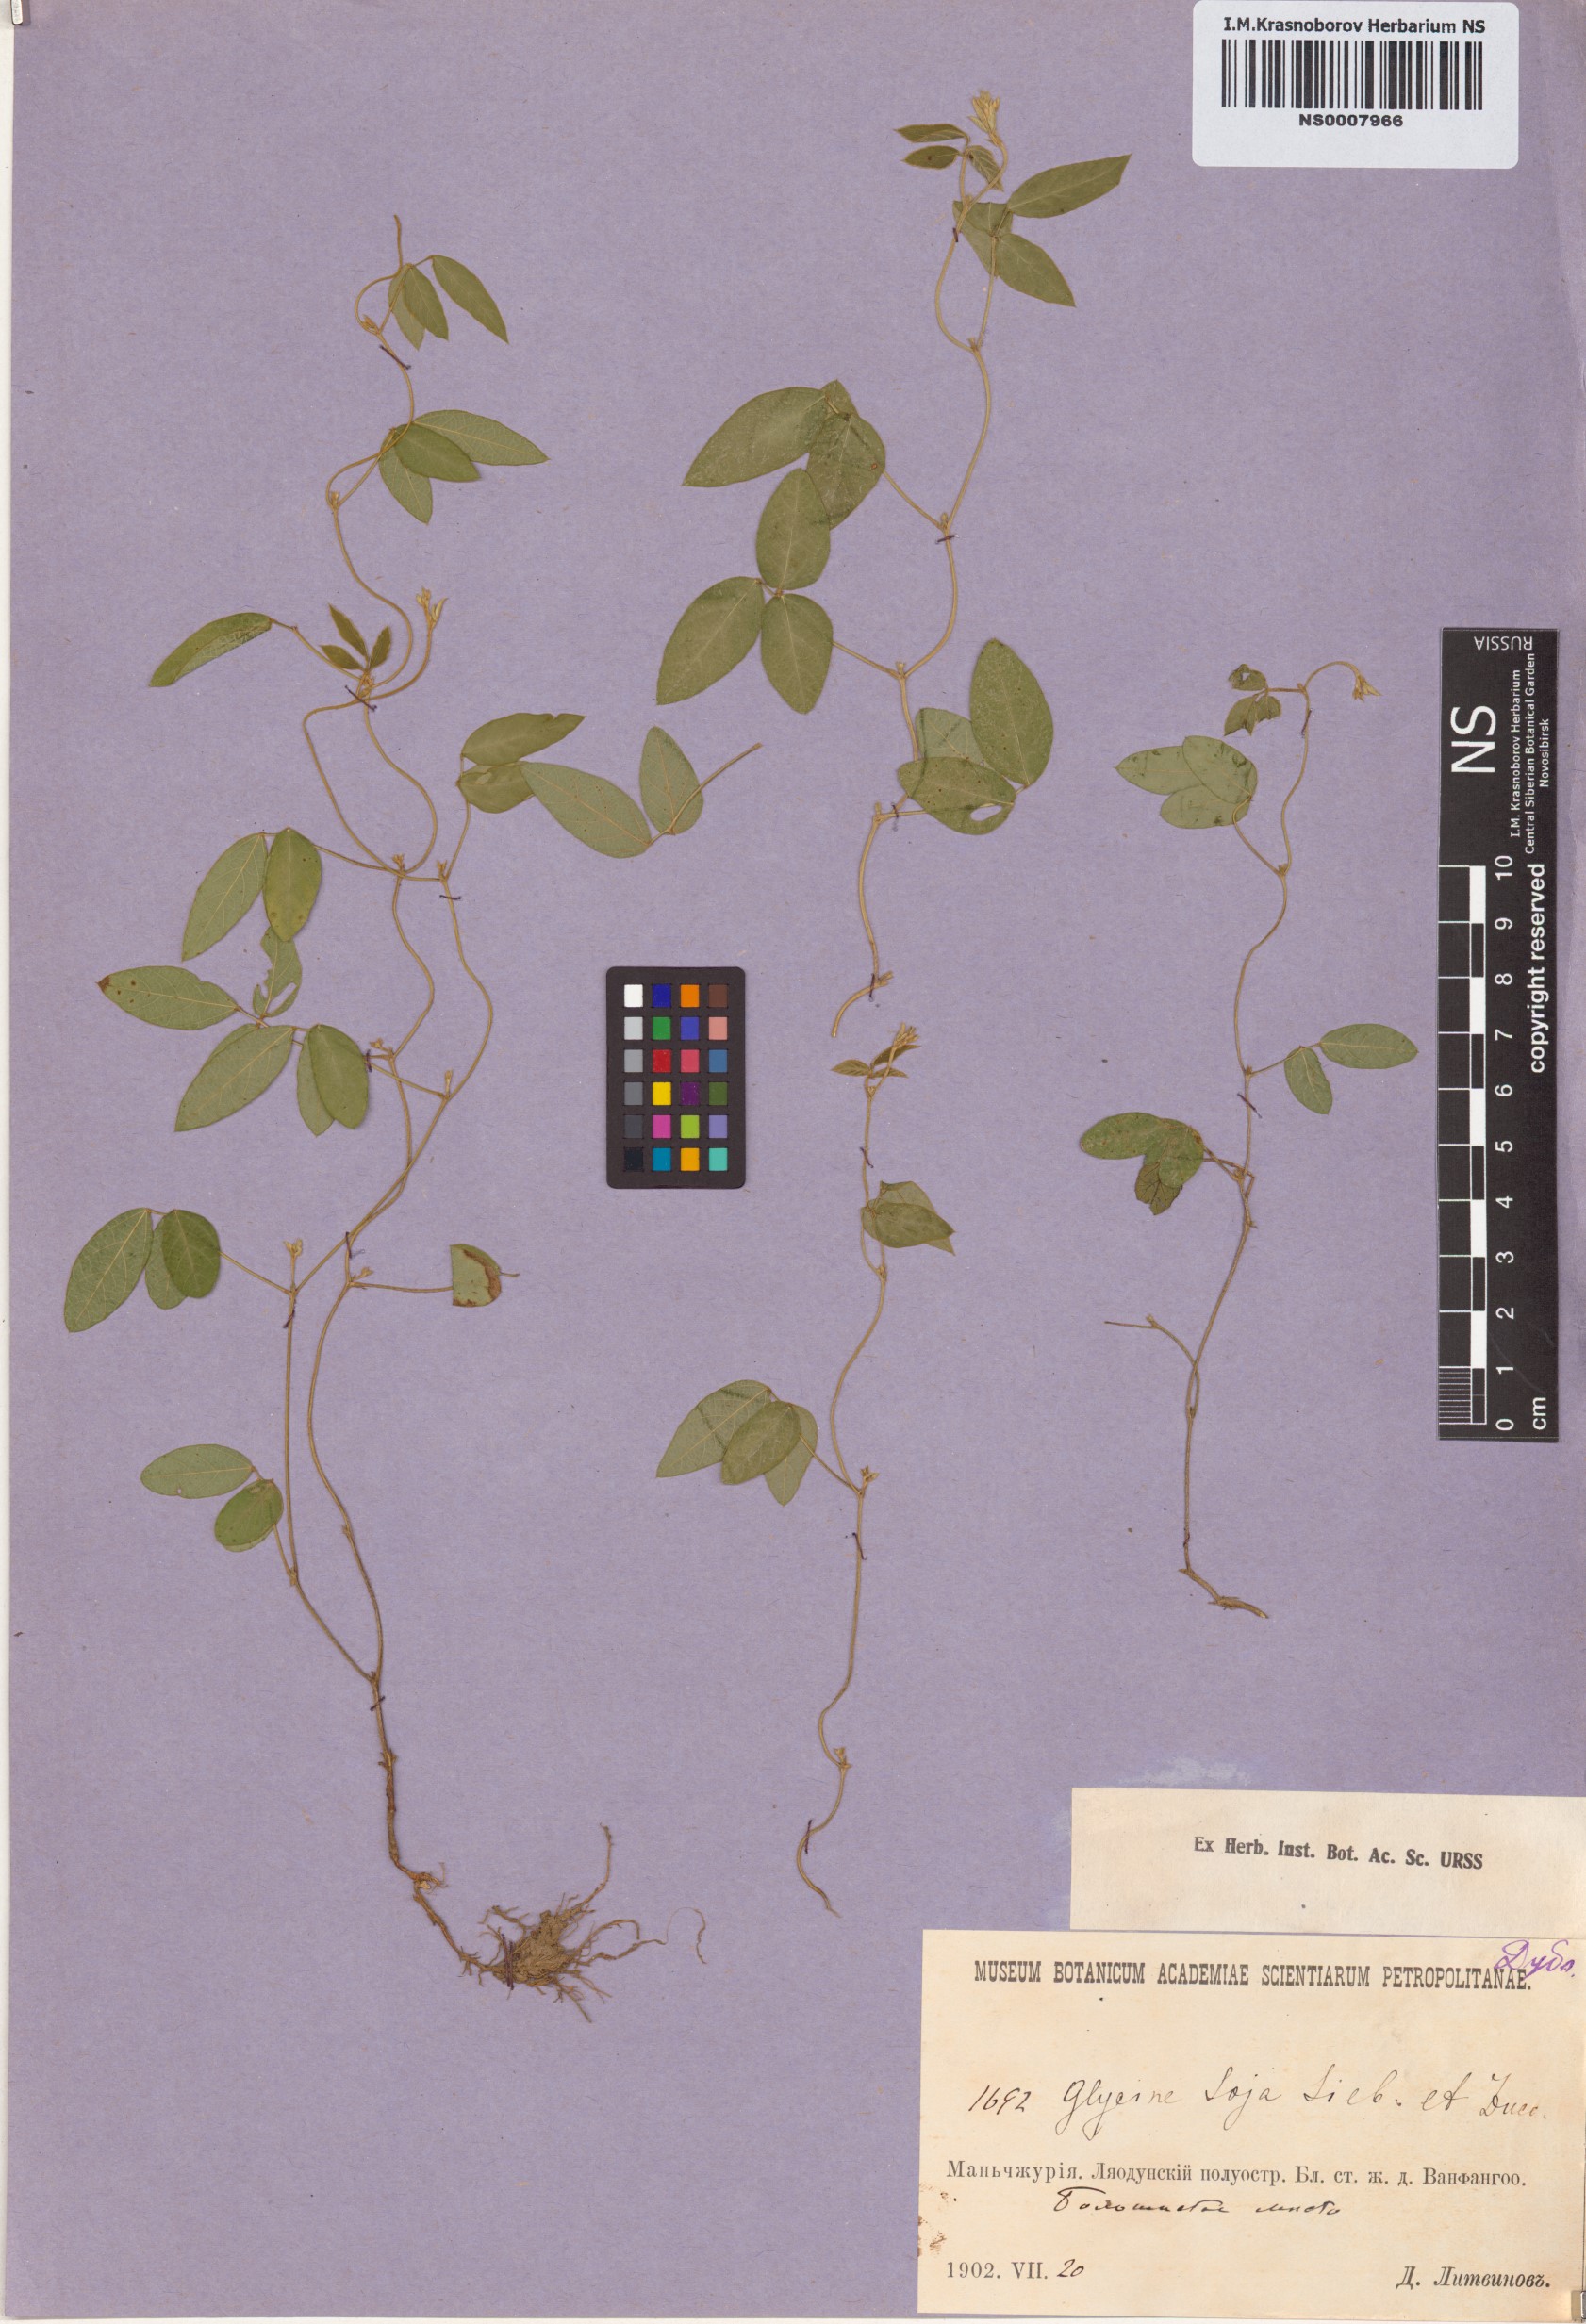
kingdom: Plantae
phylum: Tracheophyta
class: Magnoliopsida
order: Fabales
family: Fabaceae
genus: Glycine
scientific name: Glycine max
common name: Soya-bean
